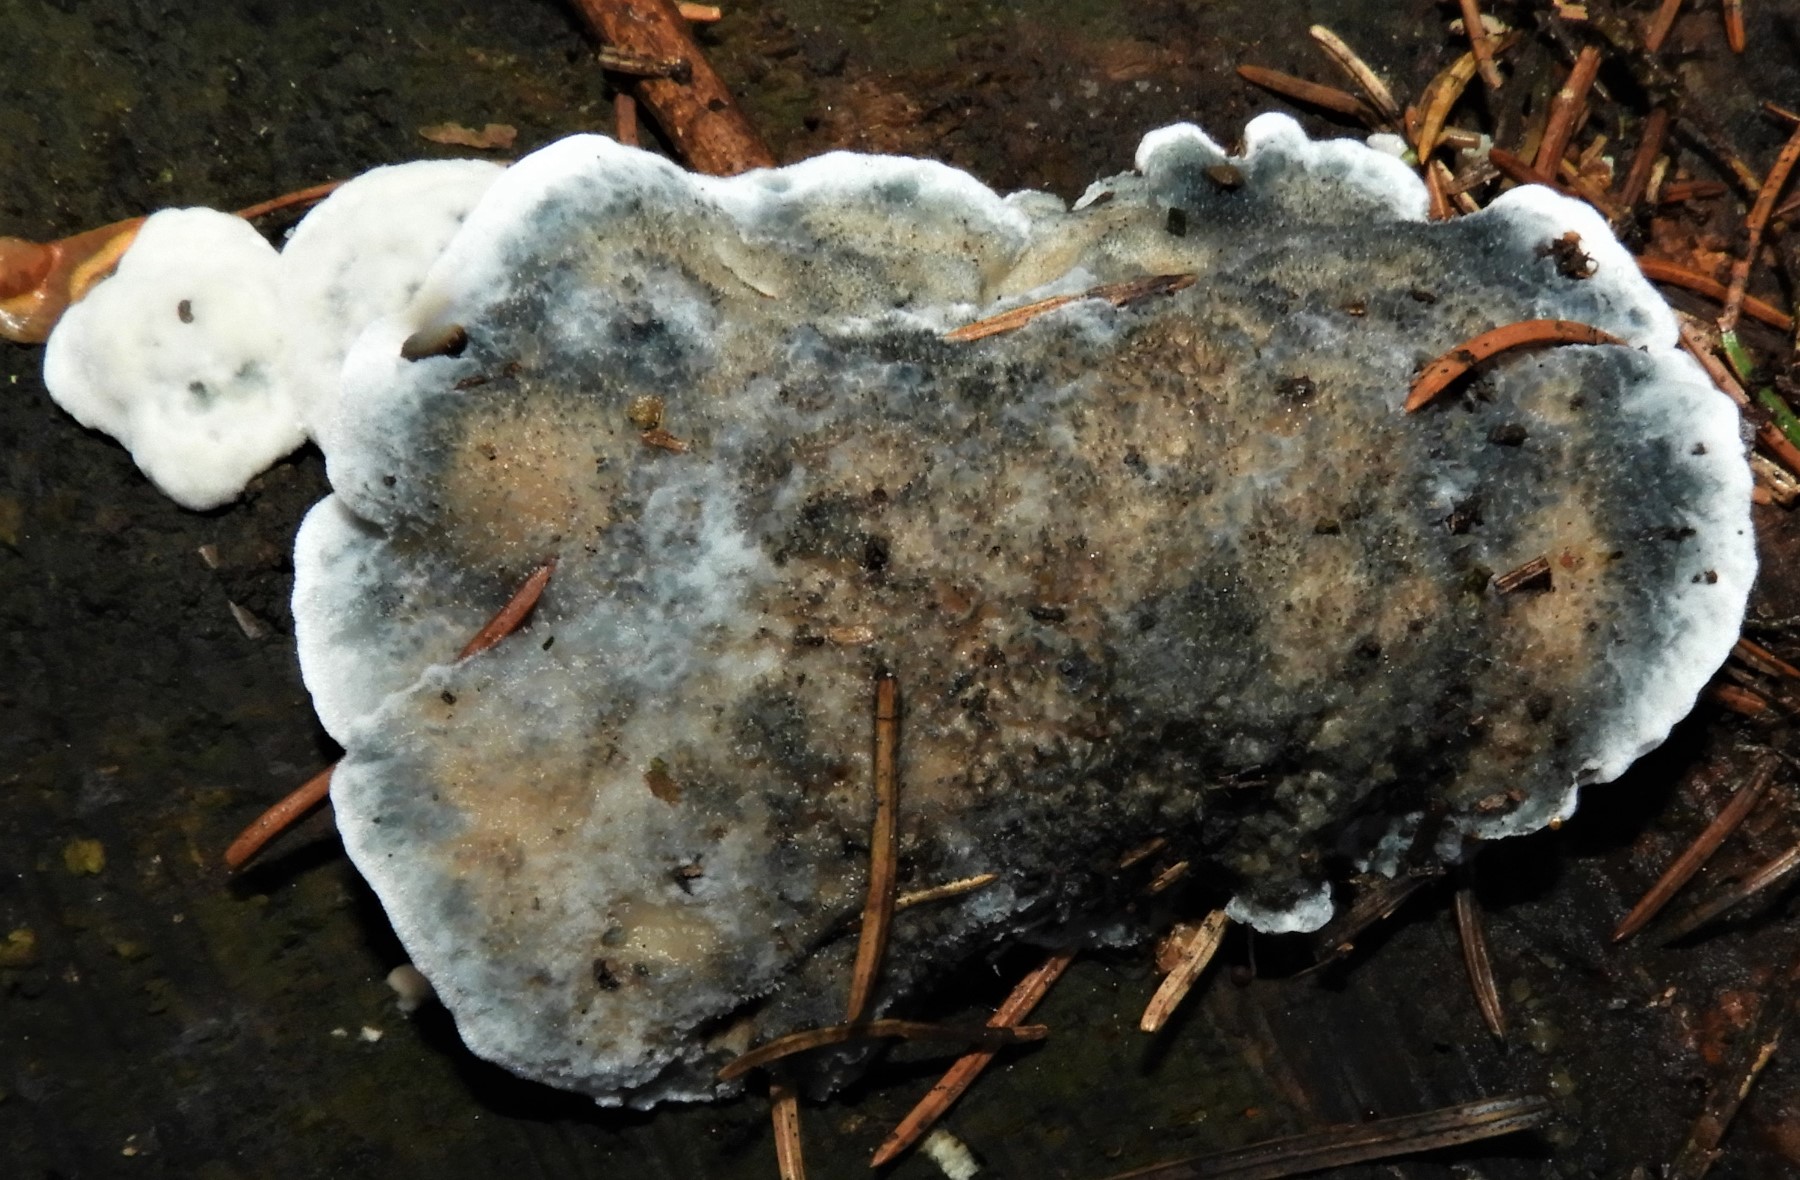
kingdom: Fungi
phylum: Basidiomycota
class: Agaricomycetes
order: Polyporales
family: Polyporaceae
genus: Cyanosporus
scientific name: Cyanosporus alni
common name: blegblå kødporesvamp
